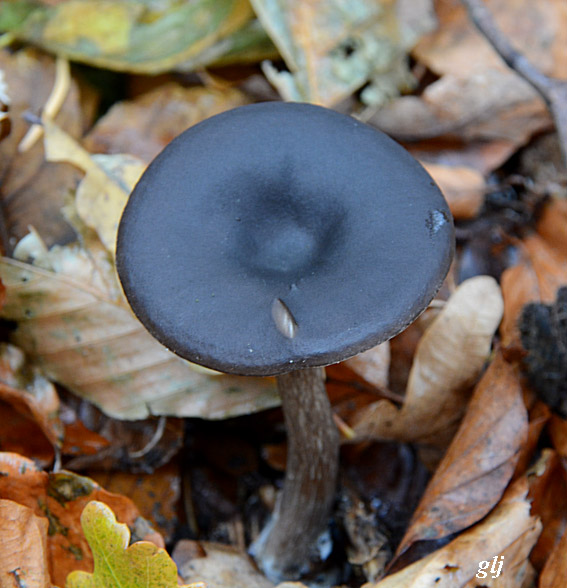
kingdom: Fungi
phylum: Basidiomycota
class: Agaricomycetes
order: Agaricales
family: Pseudoclitocybaceae
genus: Pseudoclitocybe
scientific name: Pseudoclitocybe cyathiformis
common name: almindelig bægertragthat
